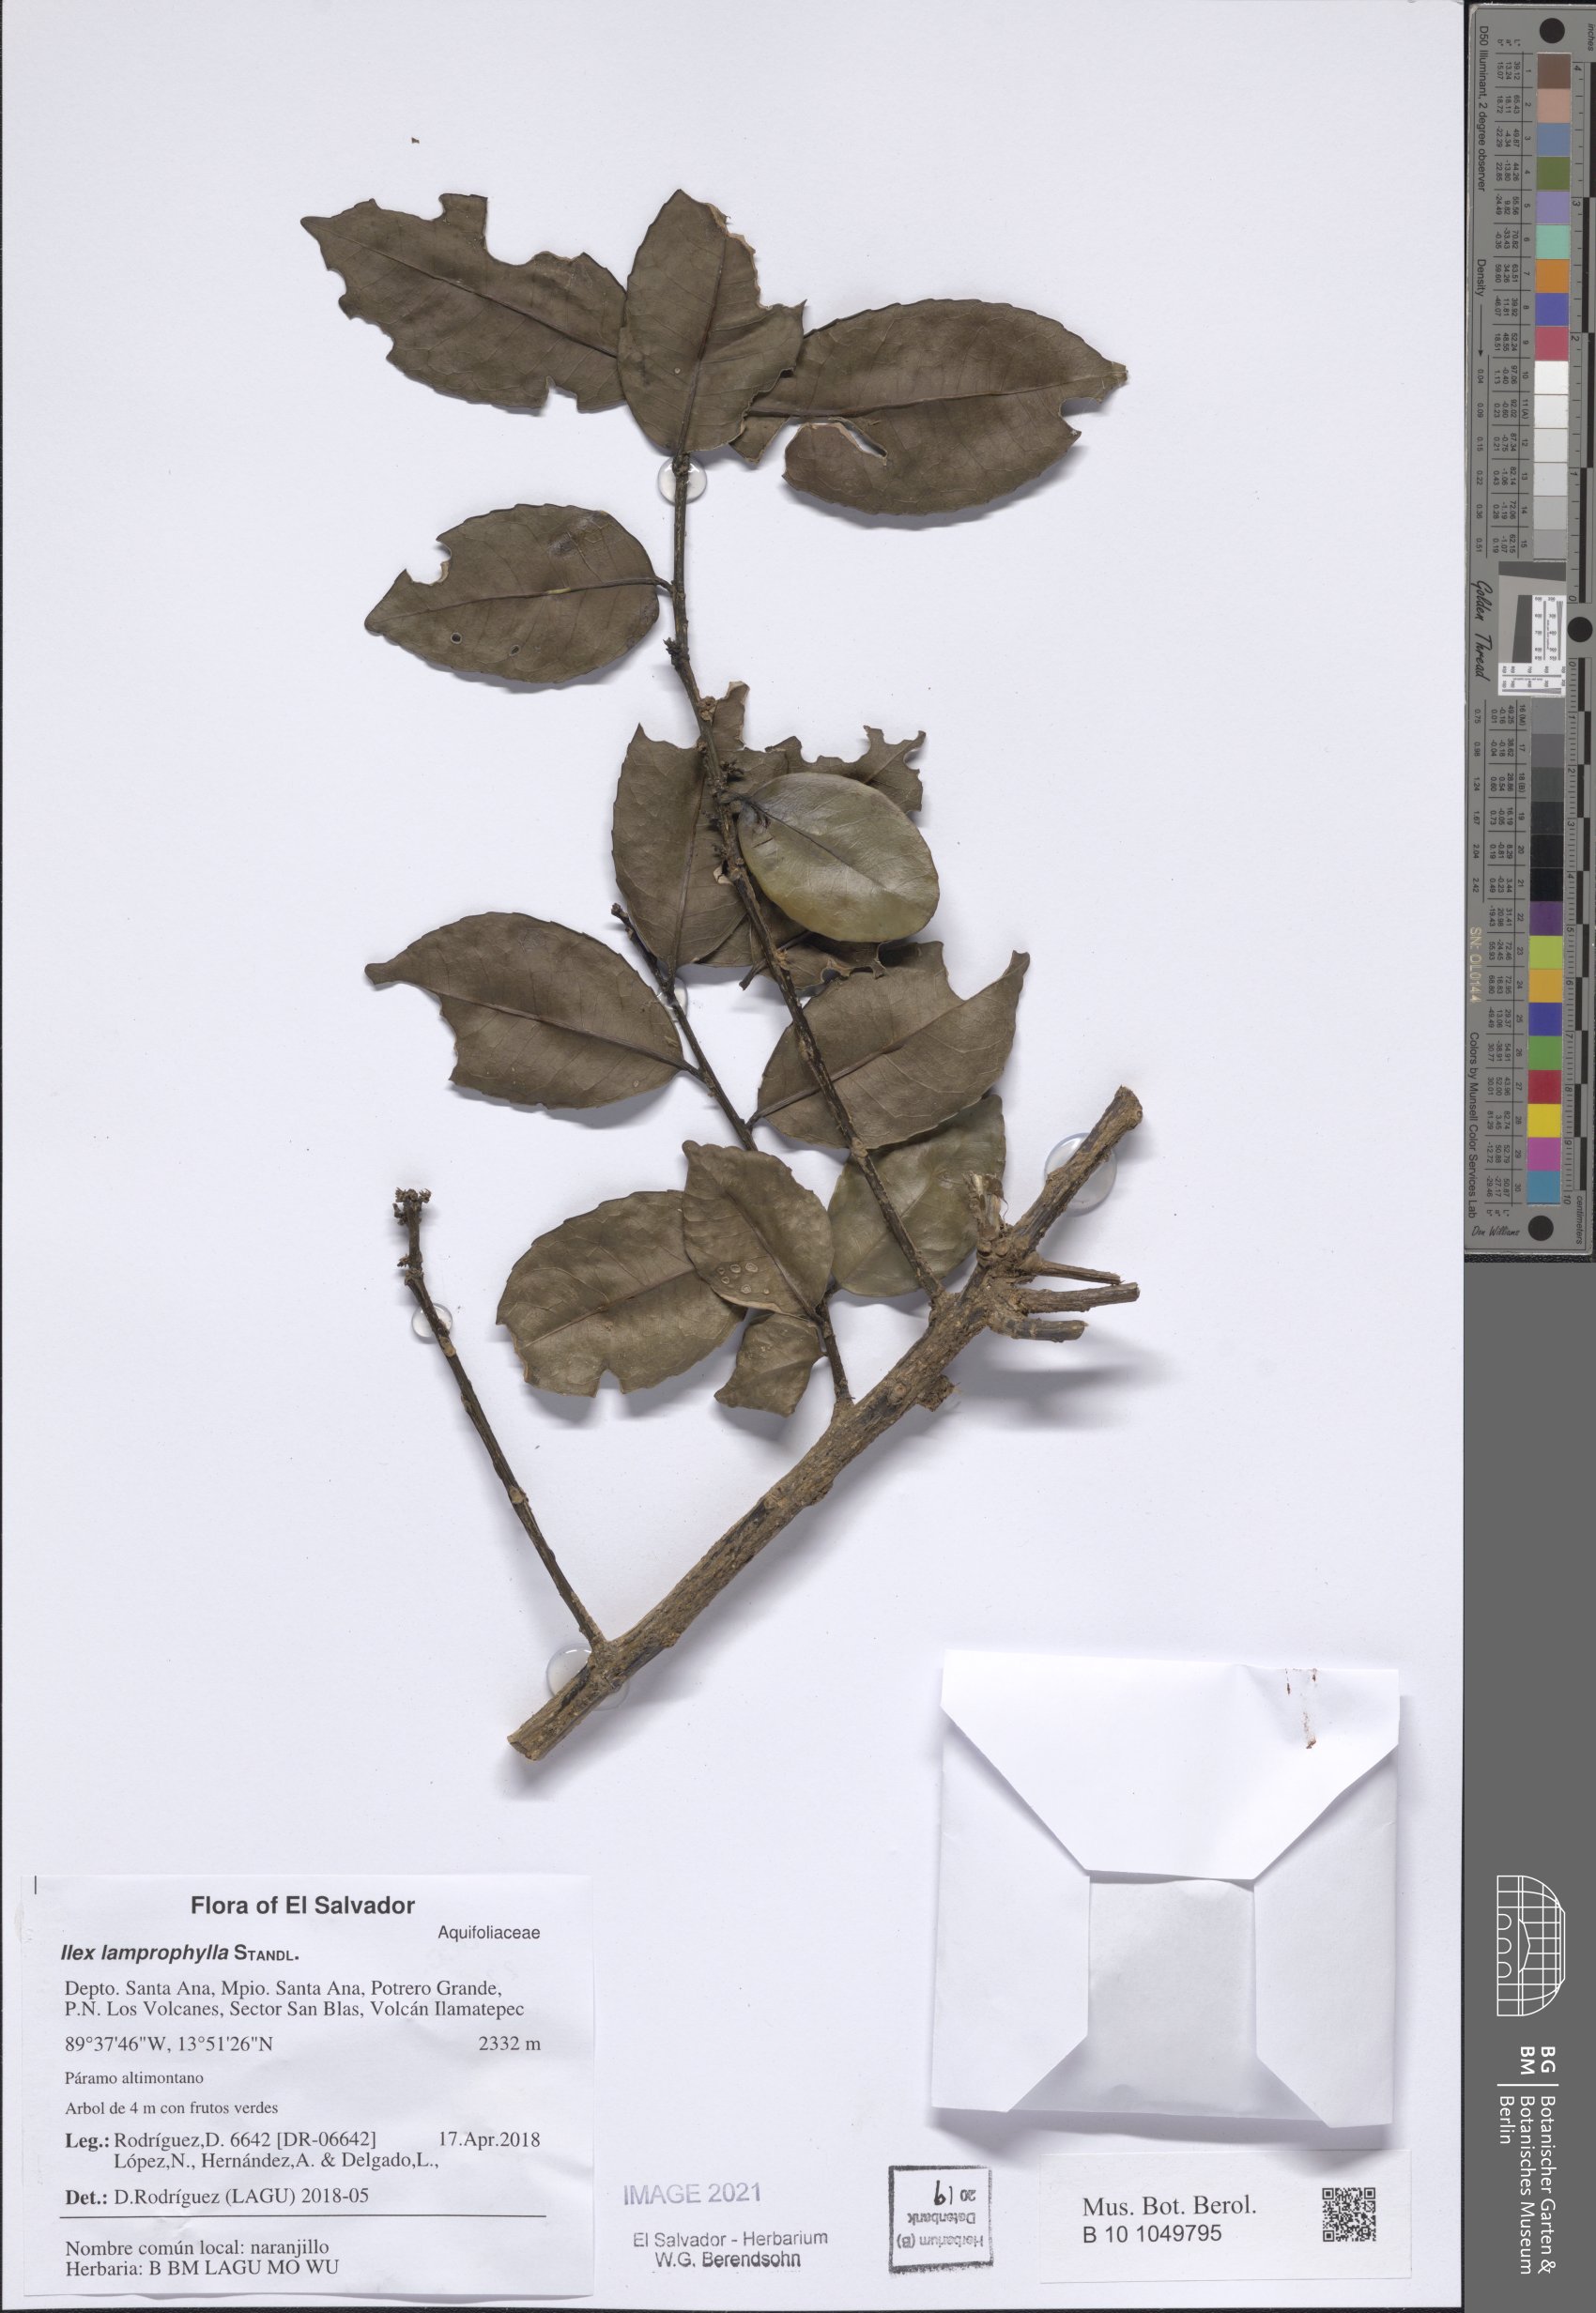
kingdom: Plantae
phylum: Tracheophyta
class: Magnoliopsida
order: Aquifoliales
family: Aquifoliaceae
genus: Ilex
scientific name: Ilex lamprophylla
